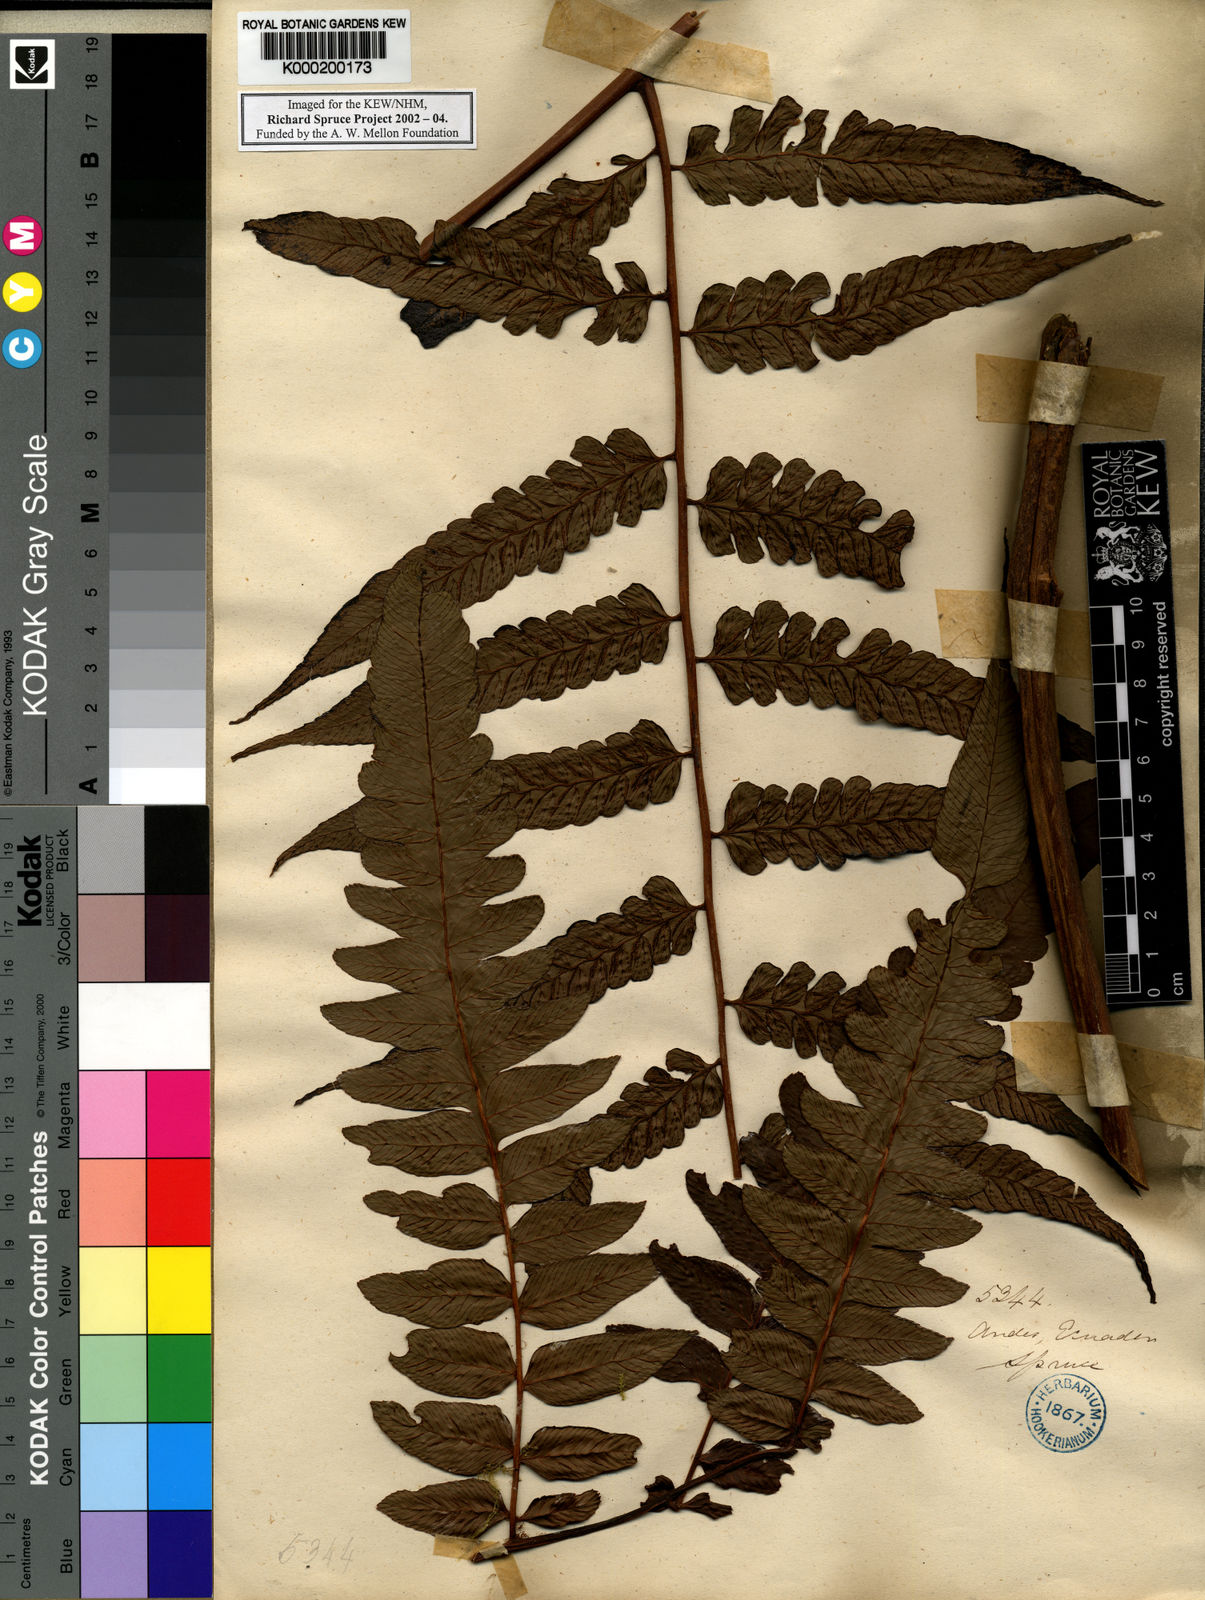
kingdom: Plantae
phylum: Tracheophyta
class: Polypodiopsida
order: Polypodiales
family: Athyriaceae
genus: Diplazium
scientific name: Diplazium
